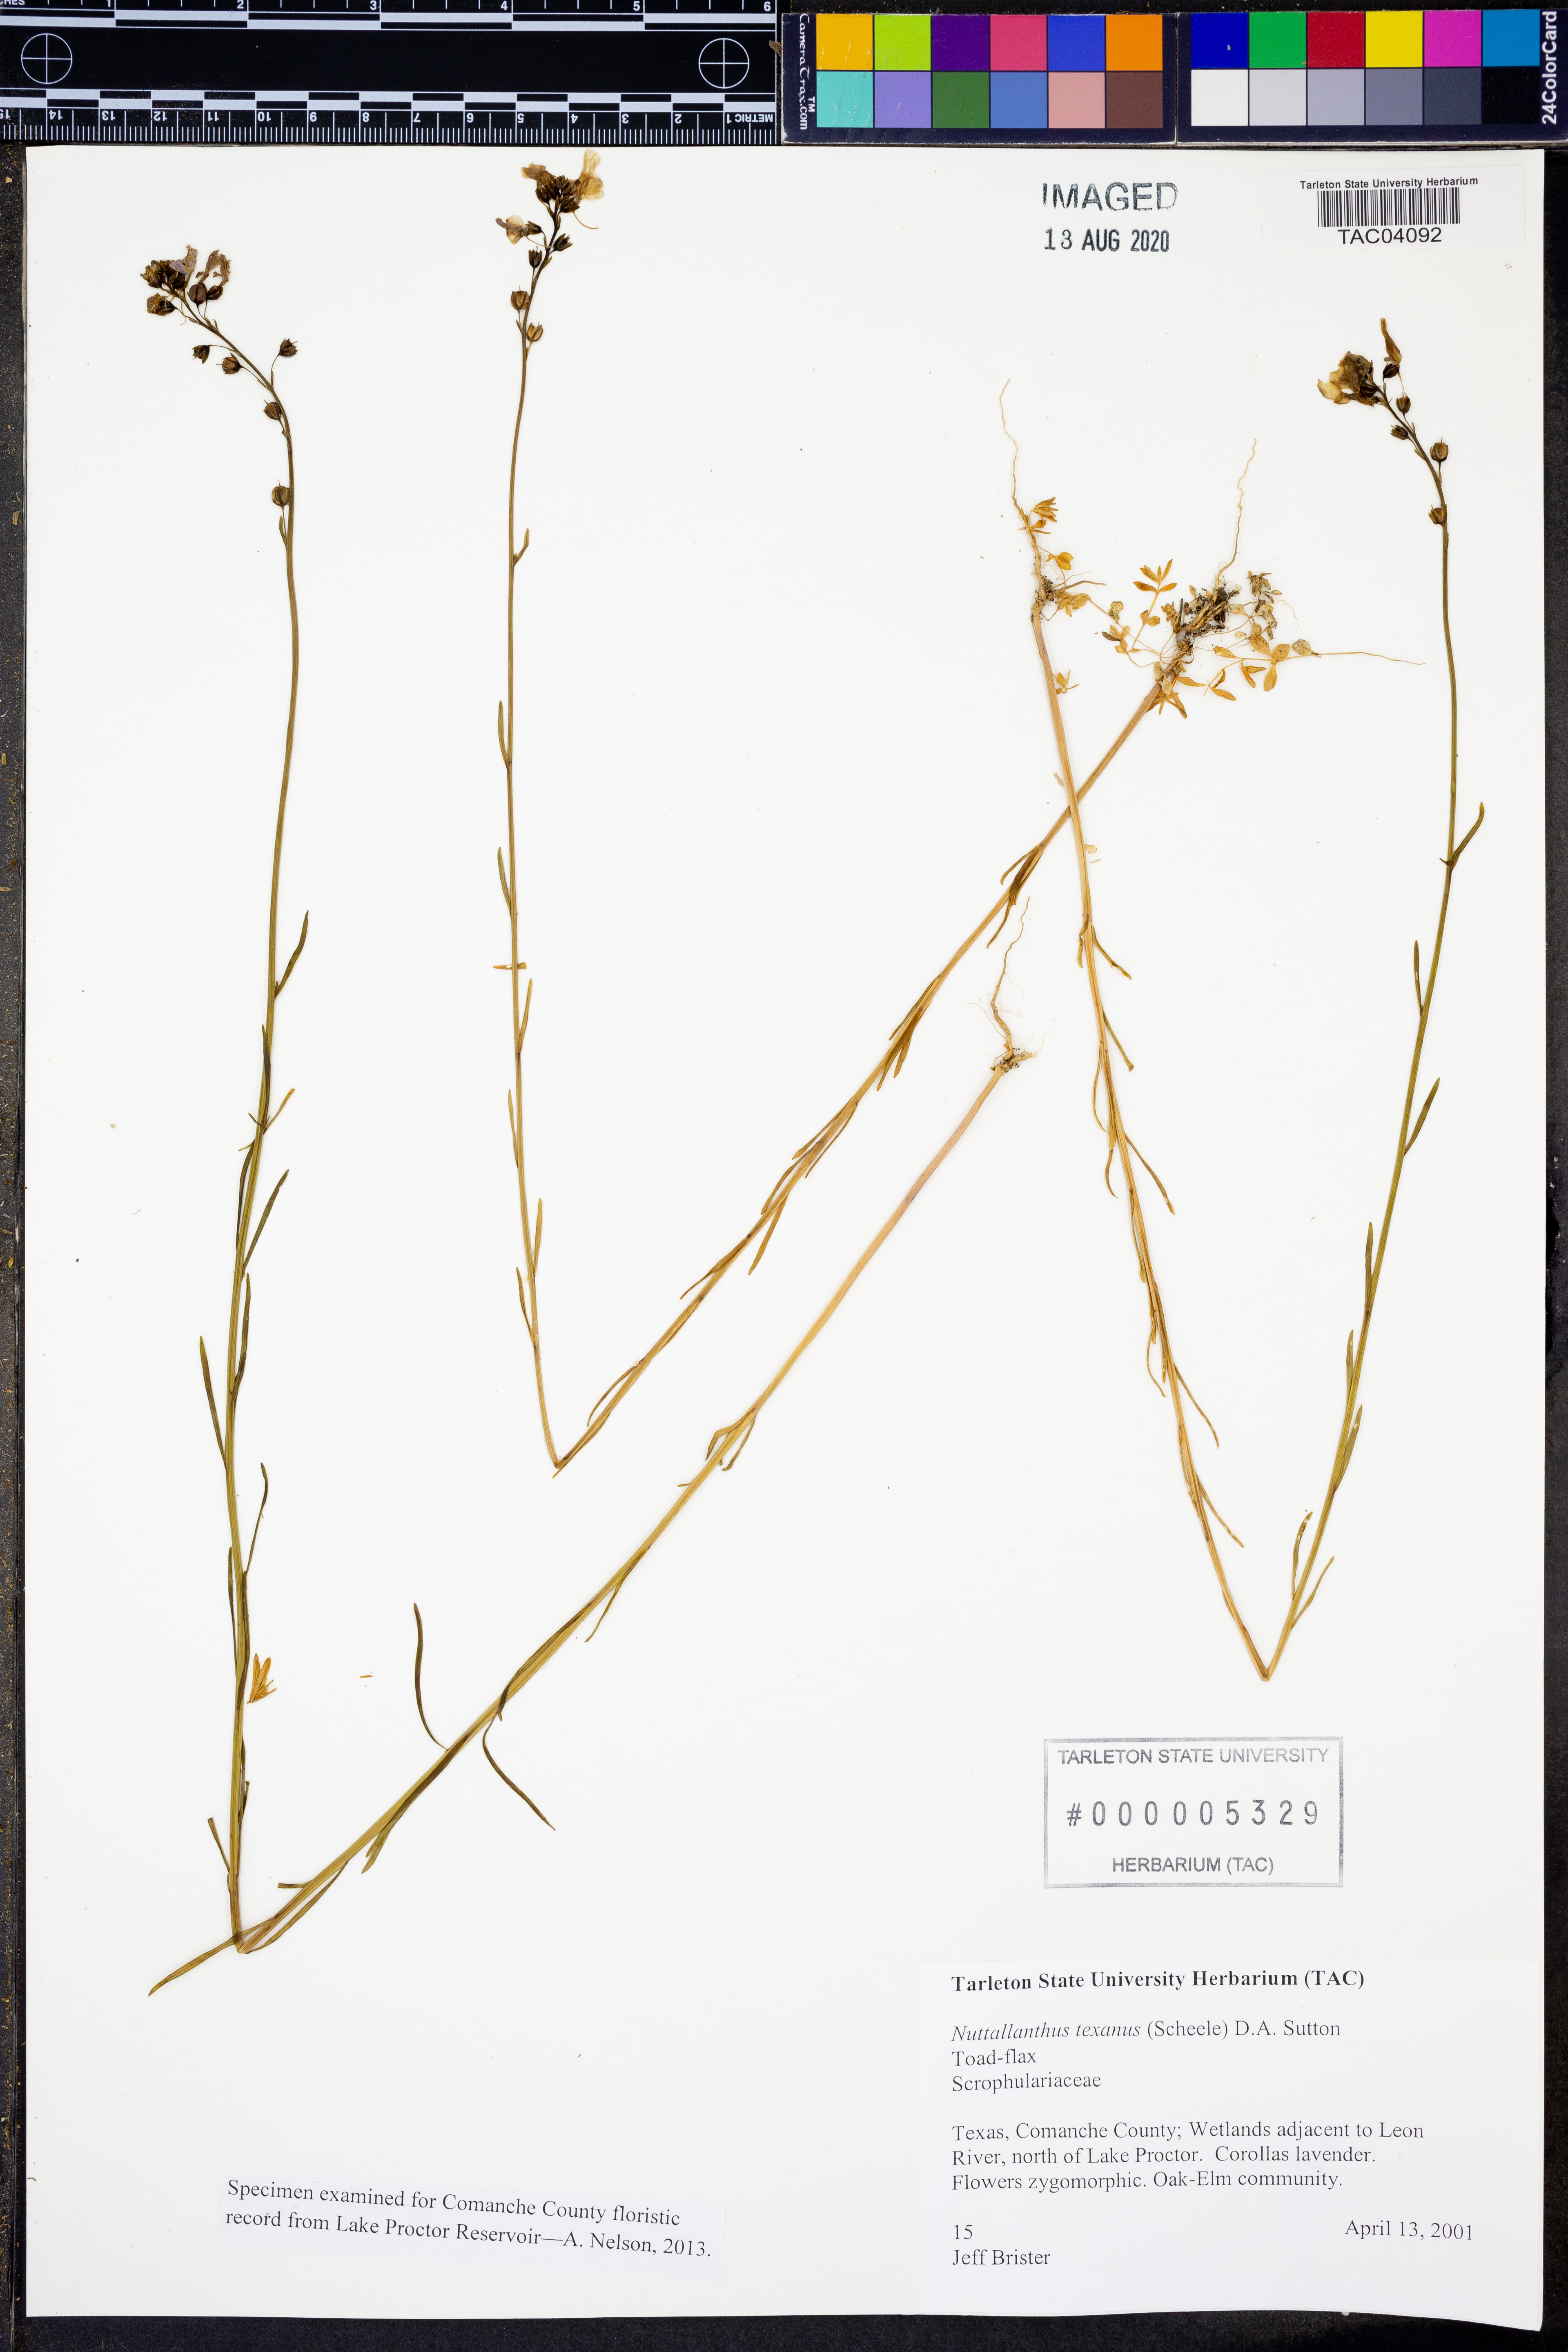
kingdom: Plantae
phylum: Tracheophyta
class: Magnoliopsida
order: Lamiales
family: Plantaginaceae
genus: Nuttallanthus
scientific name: Nuttallanthus texanus
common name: Texas toadflax
